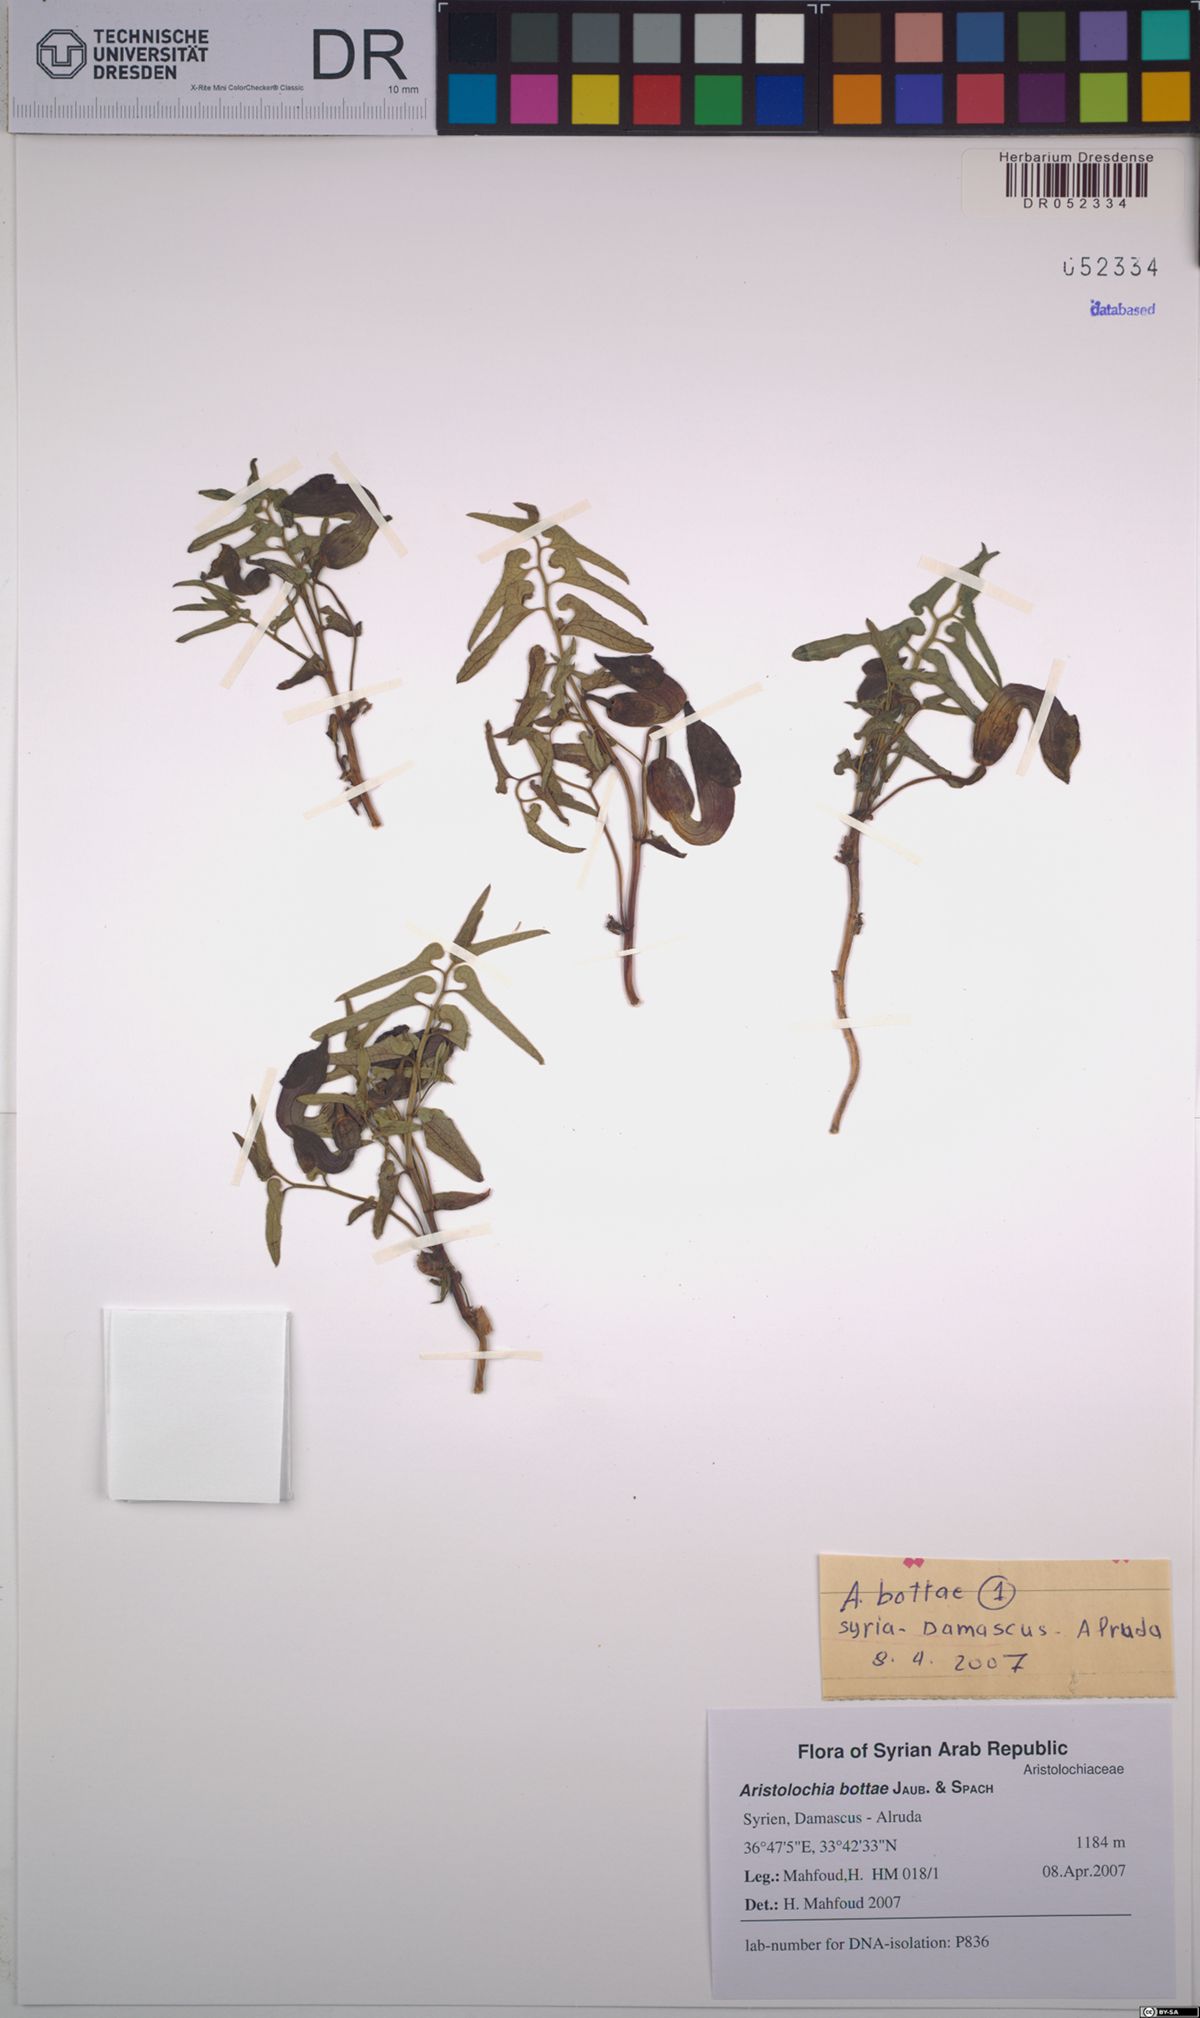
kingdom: Plantae
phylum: Tracheophyta
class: Magnoliopsida
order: Piperales
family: Aristolochiaceae
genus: Aristolochia
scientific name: Aristolochia bottae
